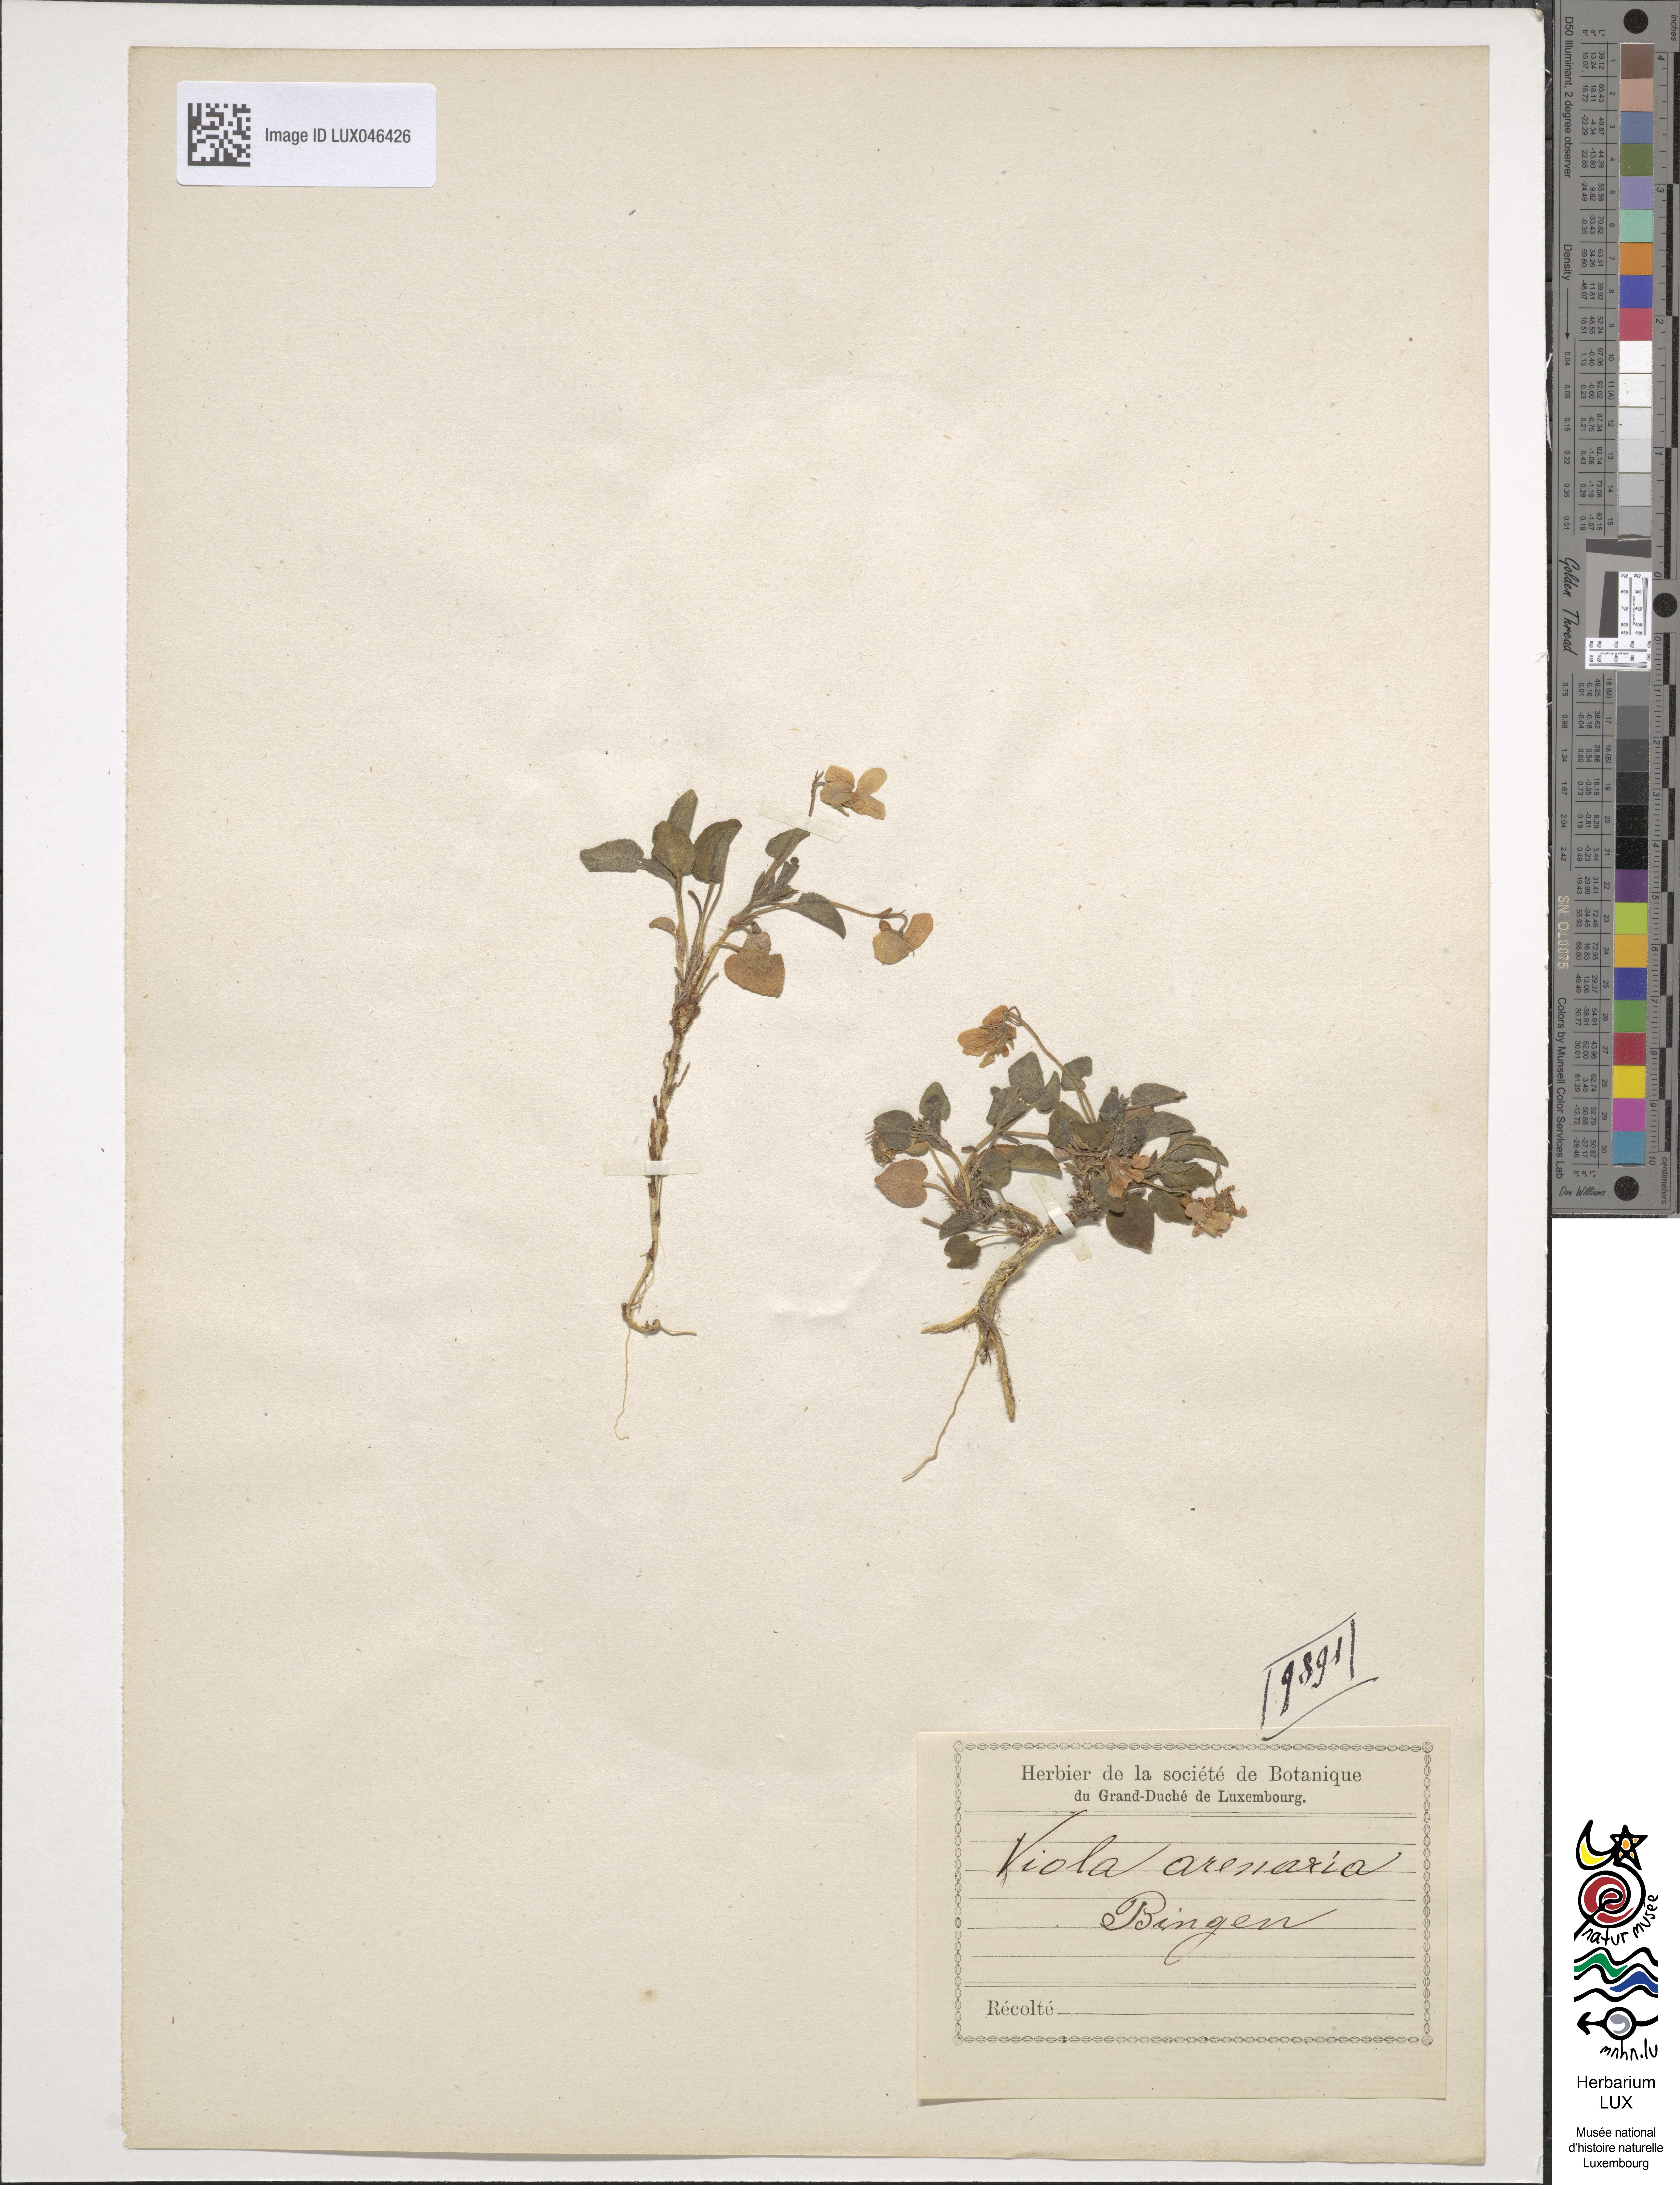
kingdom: Plantae
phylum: Tracheophyta
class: Magnoliopsida
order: Malpighiales
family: Violaceae
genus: Viola
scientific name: Viola rupestris
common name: Teesdale violet
